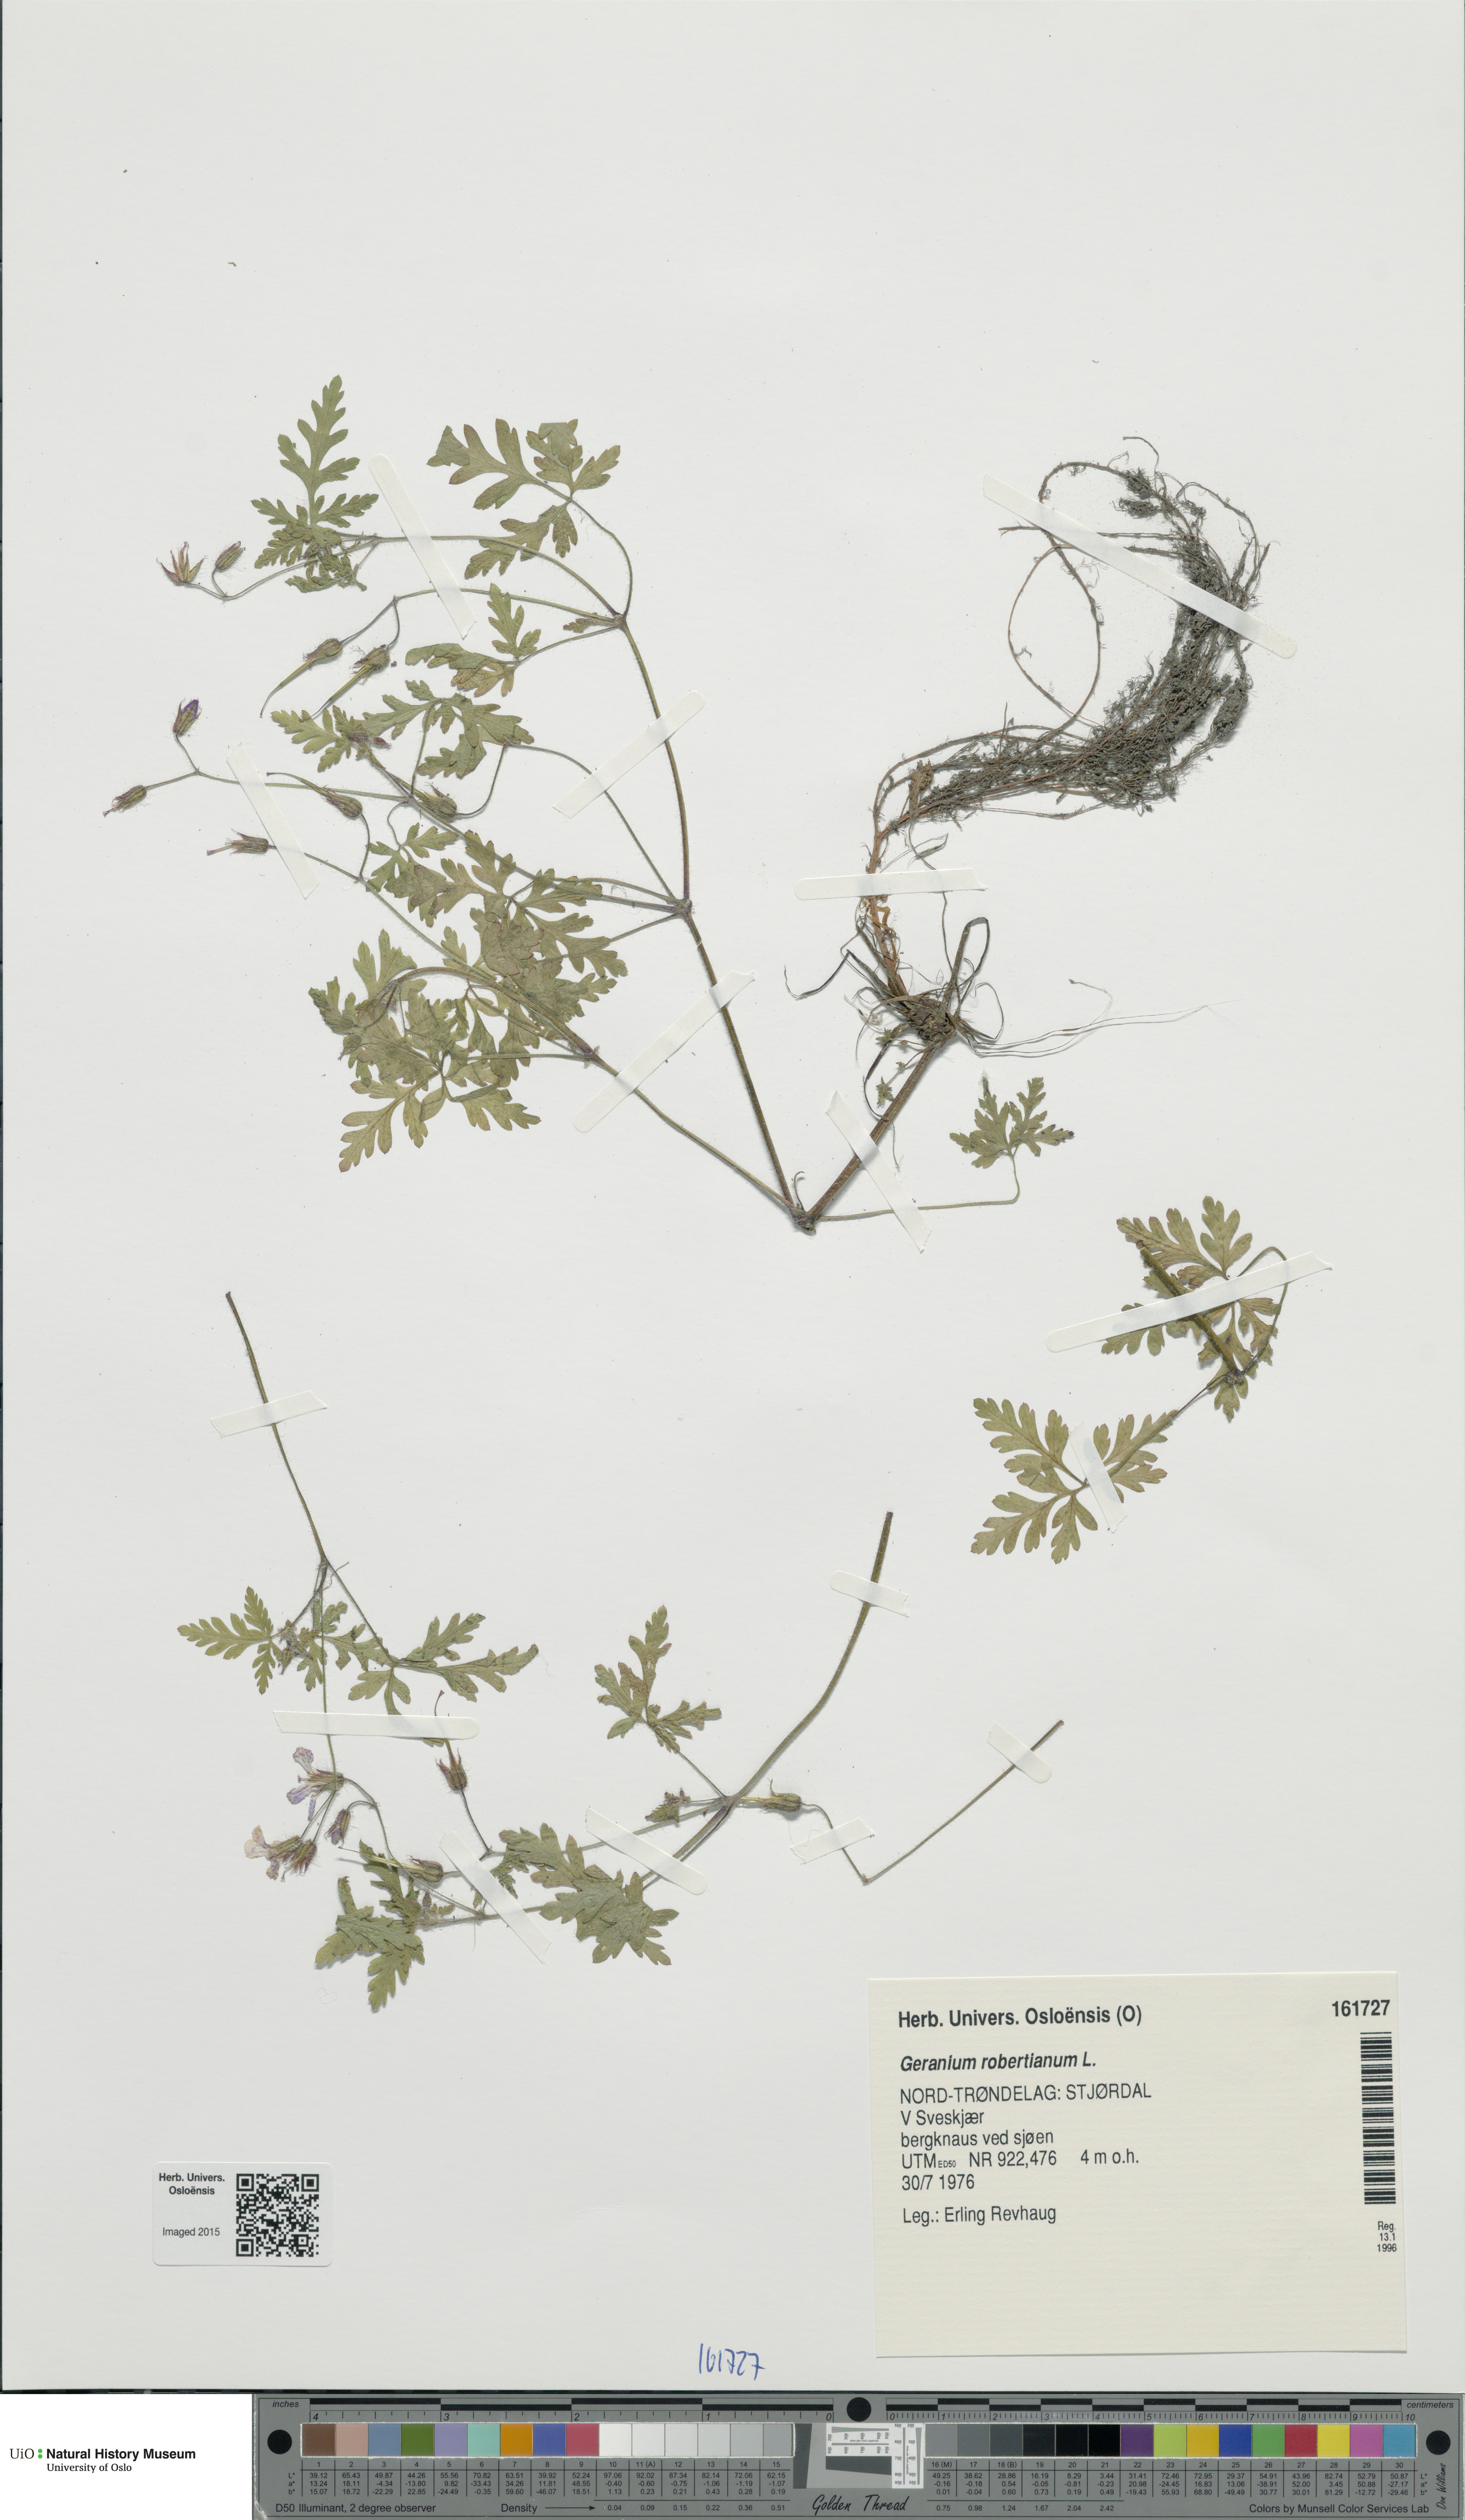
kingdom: Plantae
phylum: Tracheophyta
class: Magnoliopsida
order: Geraniales
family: Geraniaceae
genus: Geranium
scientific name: Geranium robertianum
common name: Herb-robert
